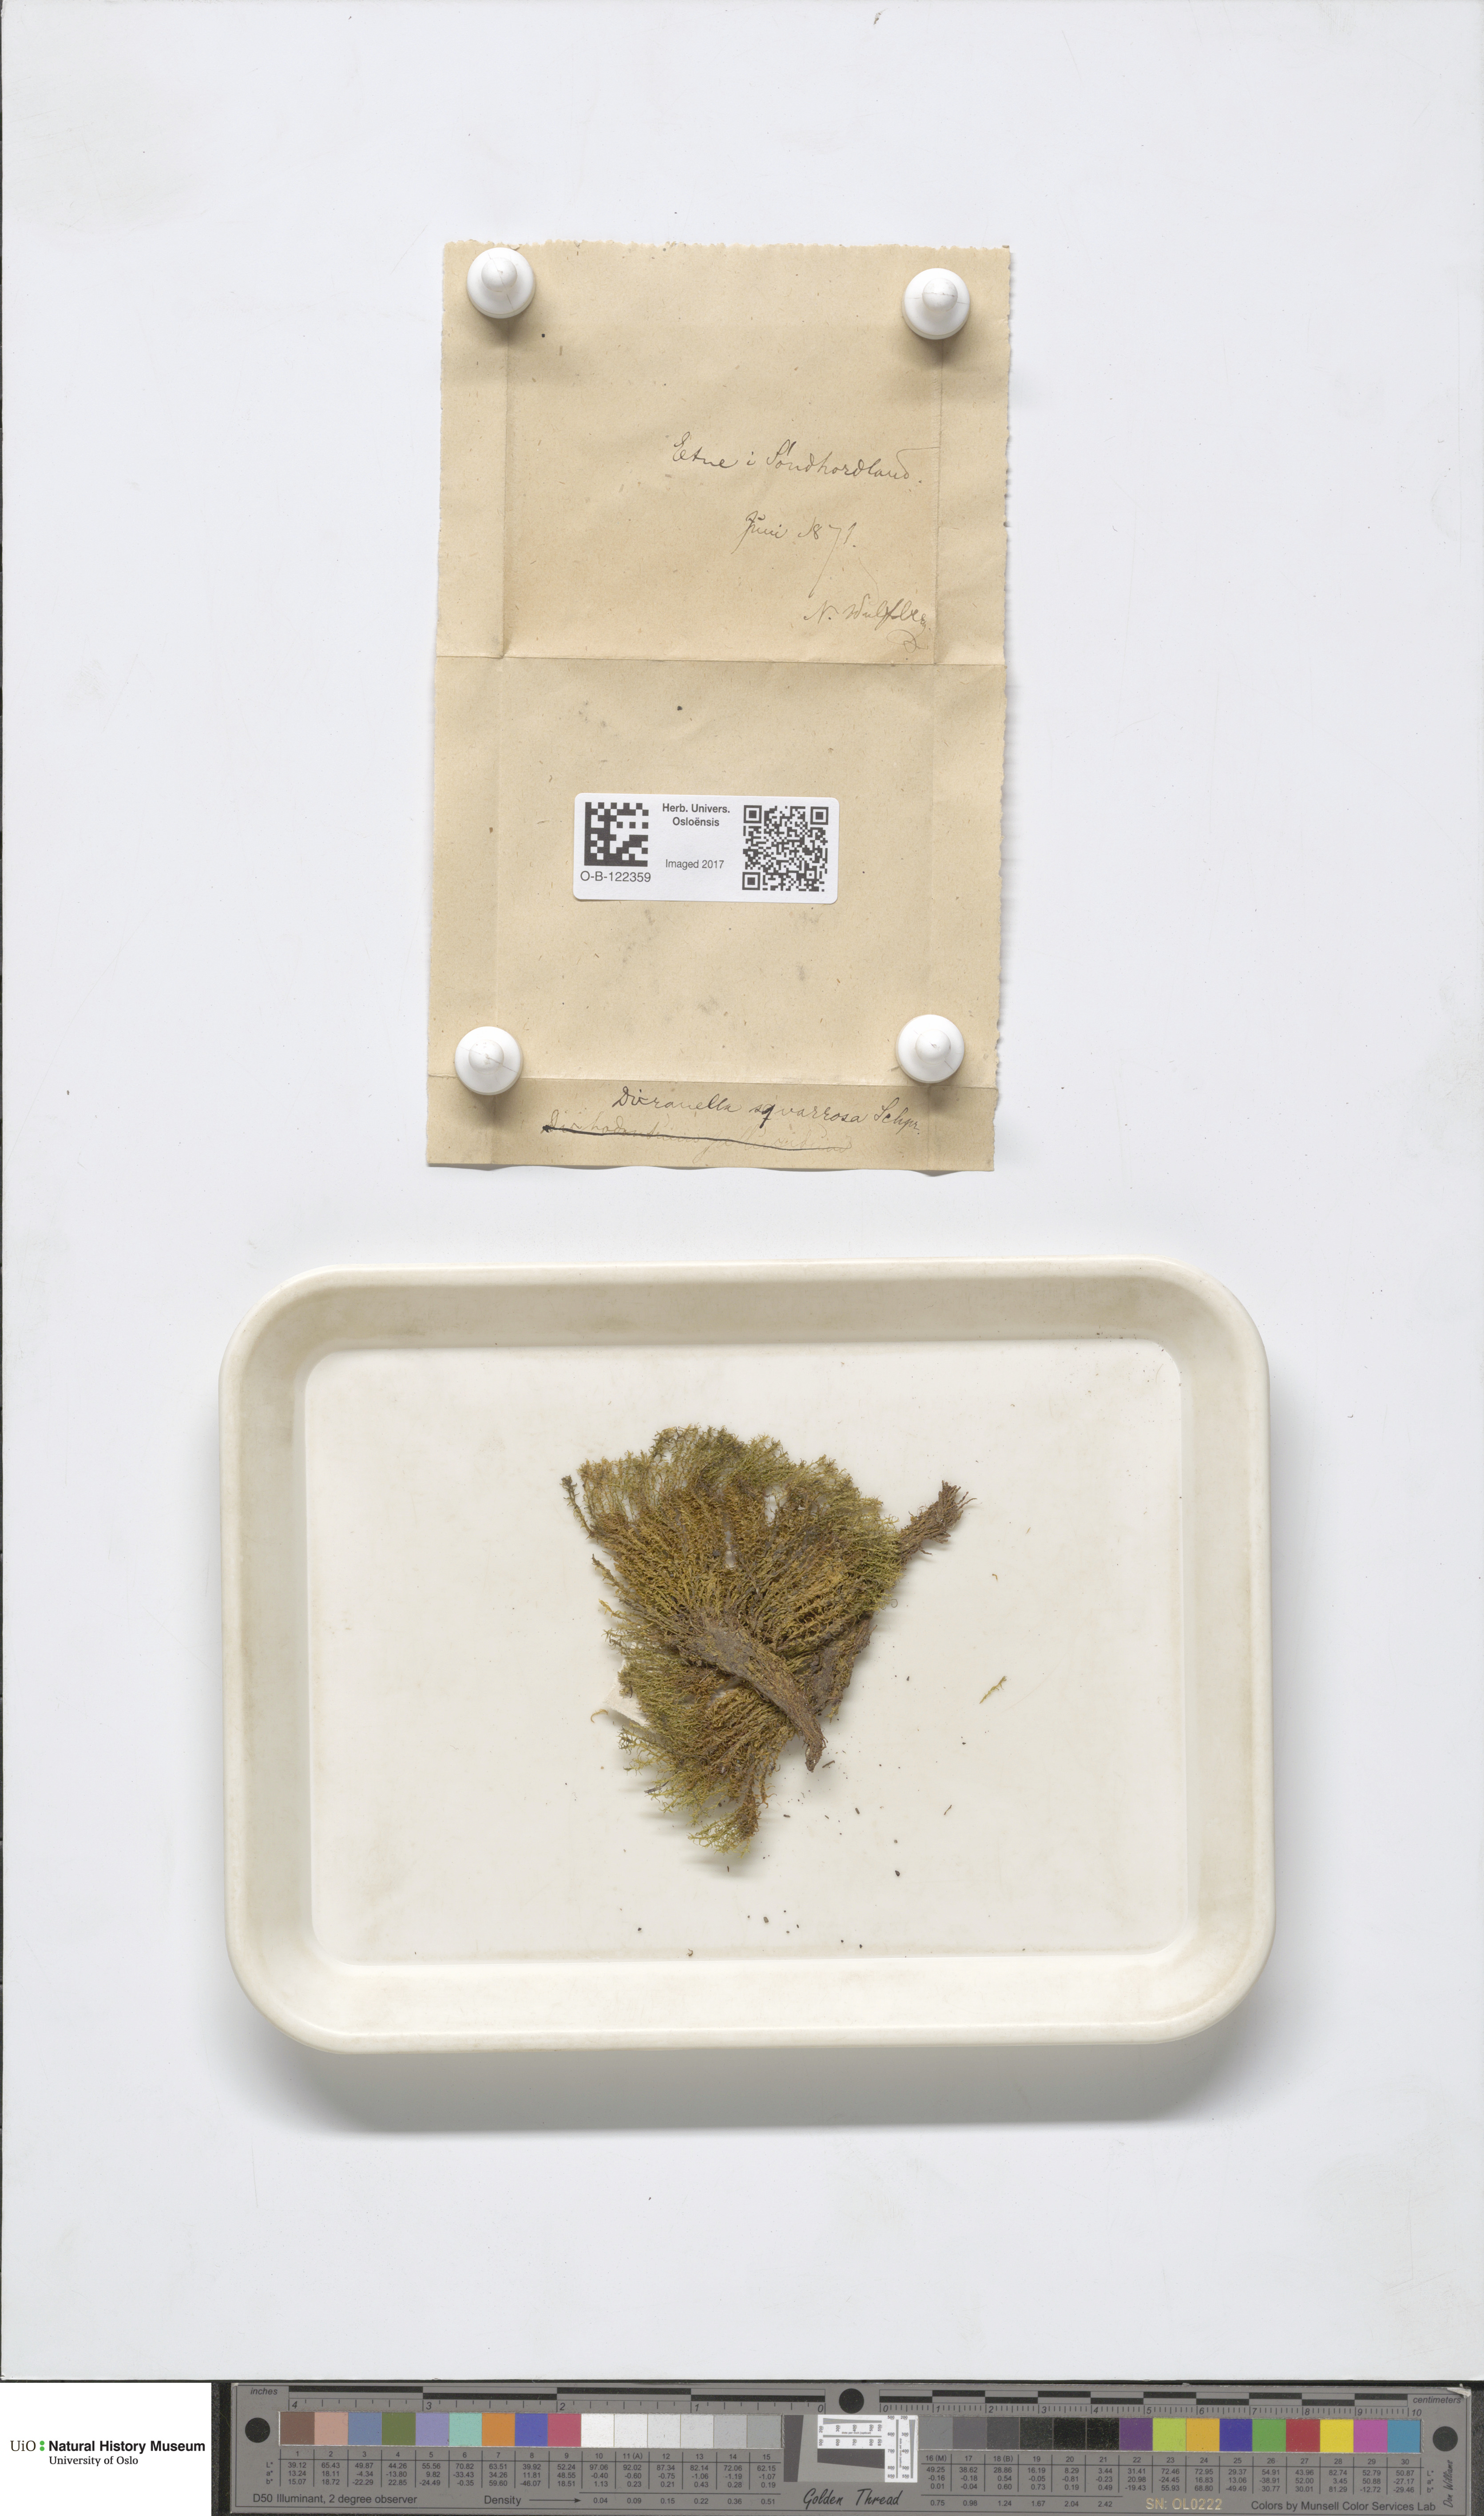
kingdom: Plantae
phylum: Bryophyta
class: Bryopsida
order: Dicranales
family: Aongstroemiaceae
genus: Diobelonella
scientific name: Diobelonella palustris
